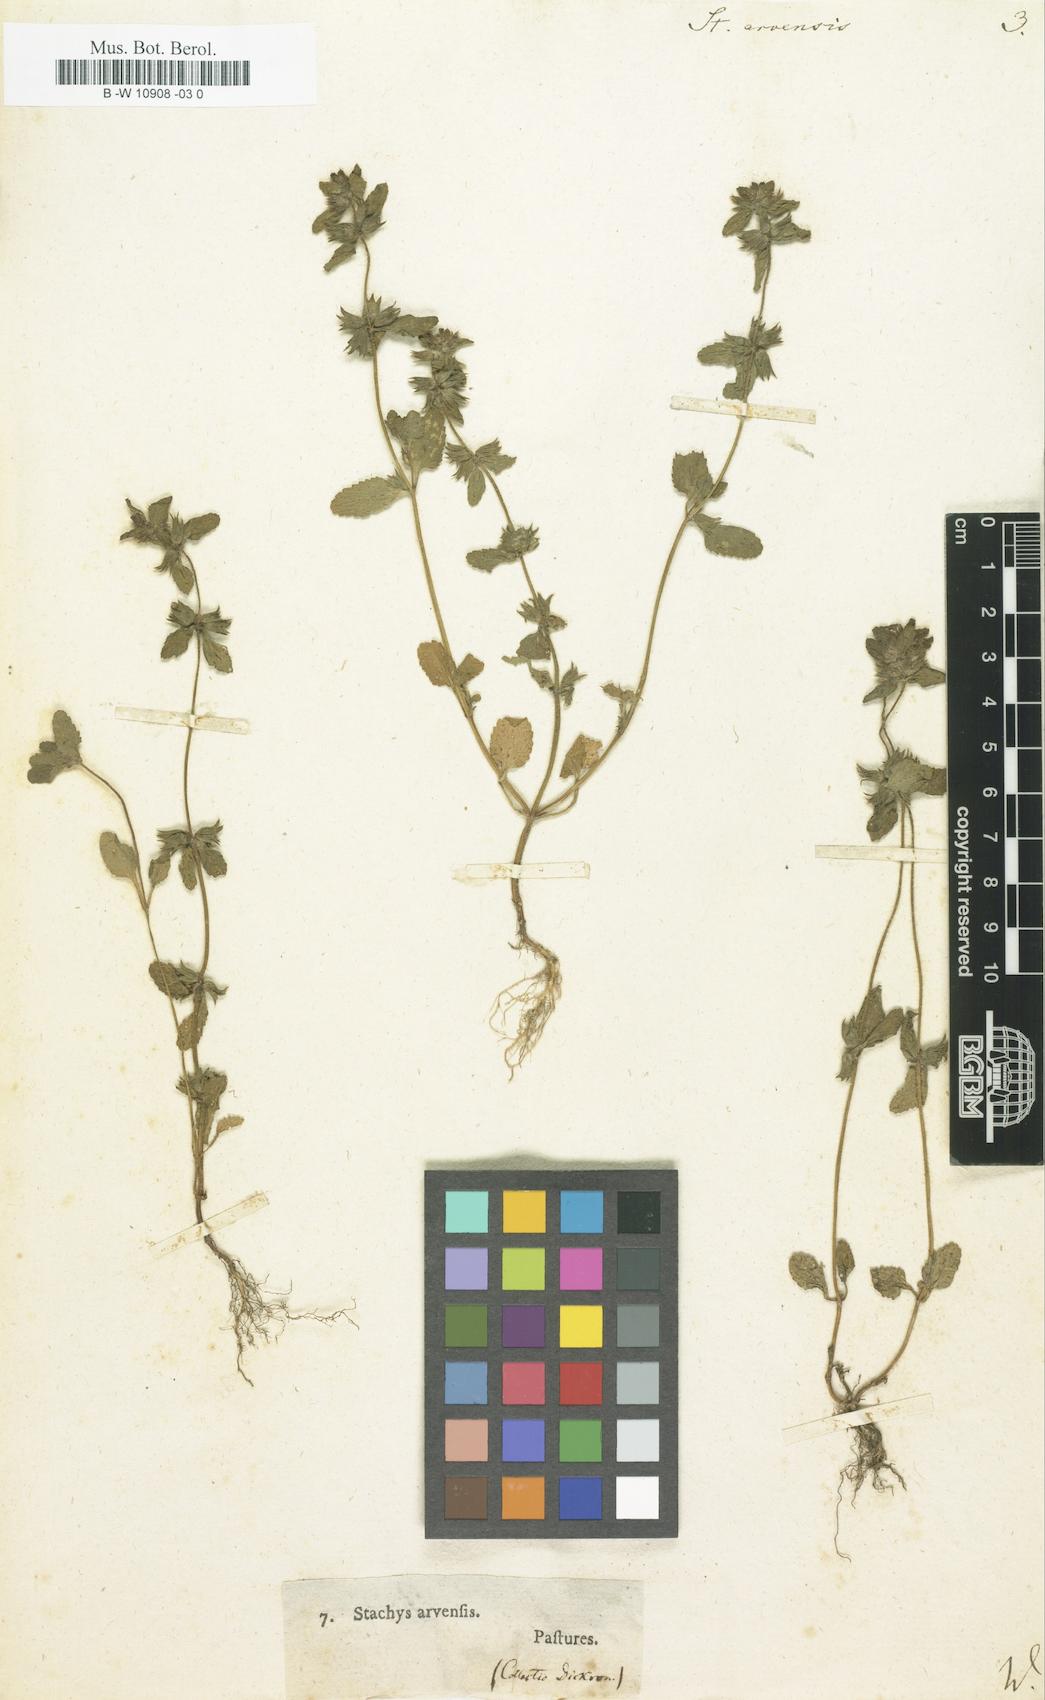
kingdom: Plantae
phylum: Tracheophyta
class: Magnoliopsida
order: Lamiales
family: Lamiaceae
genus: Stachys
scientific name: Stachys arvensis
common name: Field woundwort
